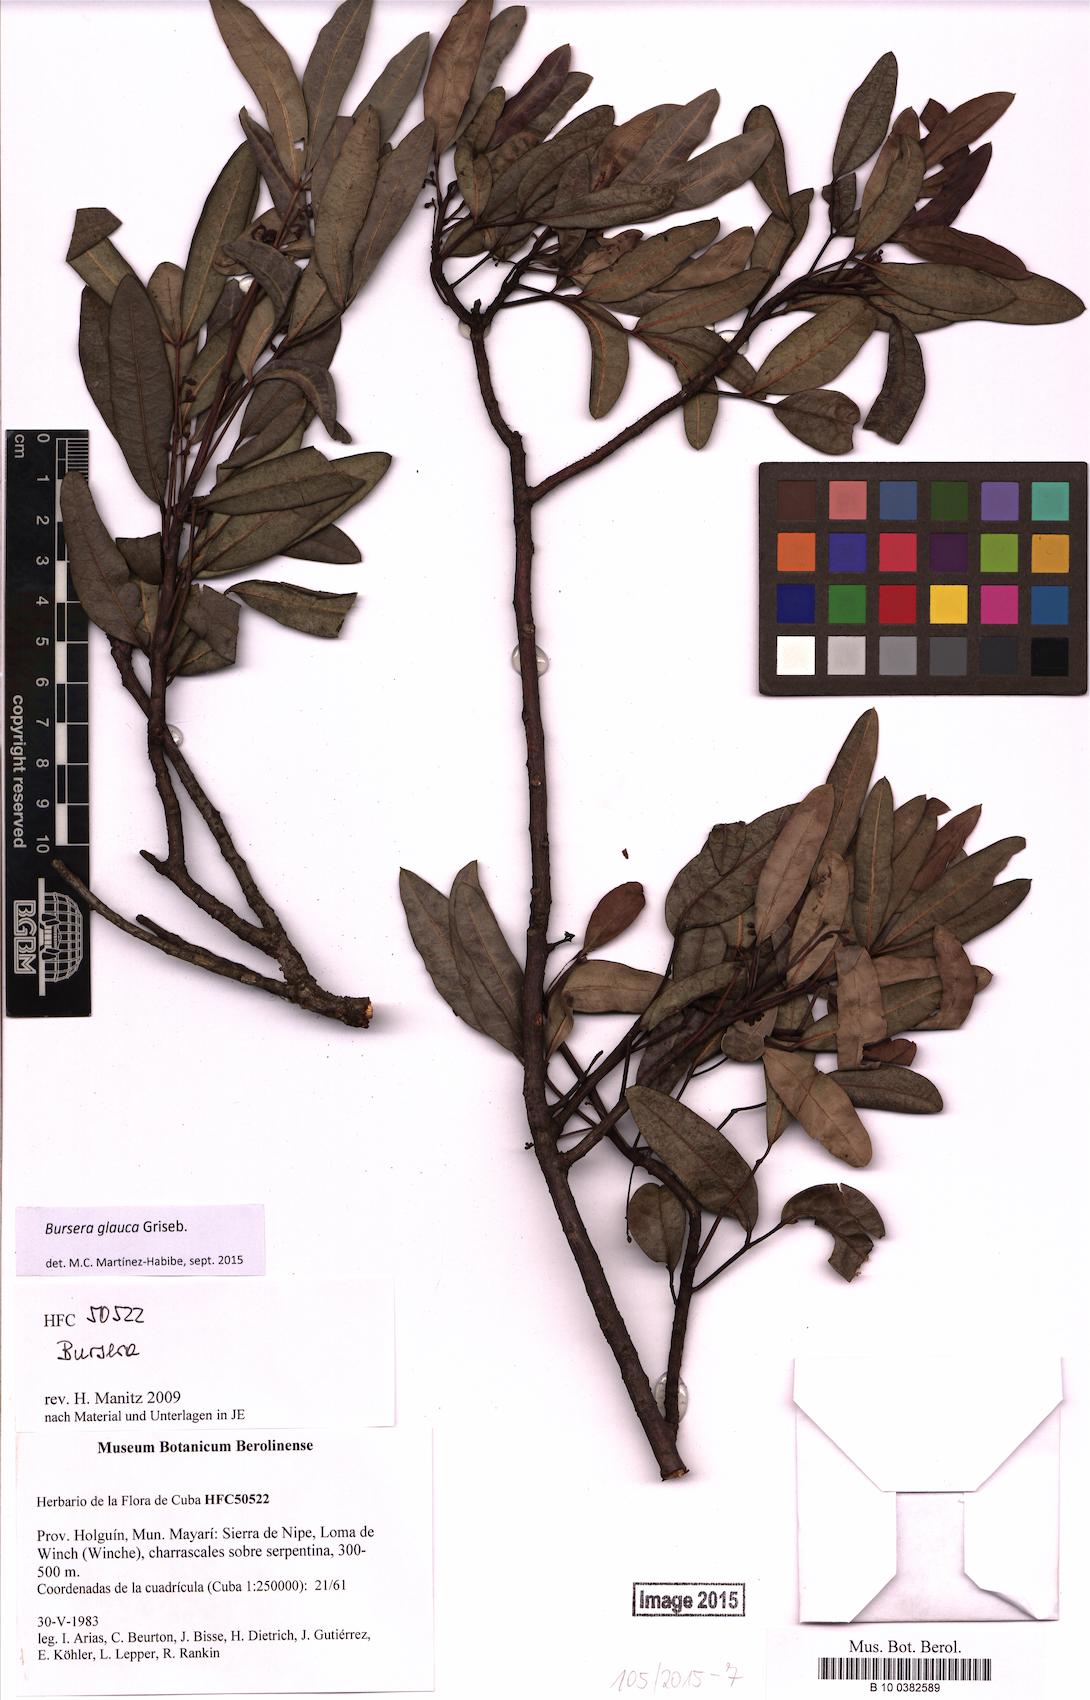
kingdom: Plantae
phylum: Tracheophyta
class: Magnoliopsida
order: Sapindales
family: Burseraceae
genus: Bursera
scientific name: Bursera glauca
